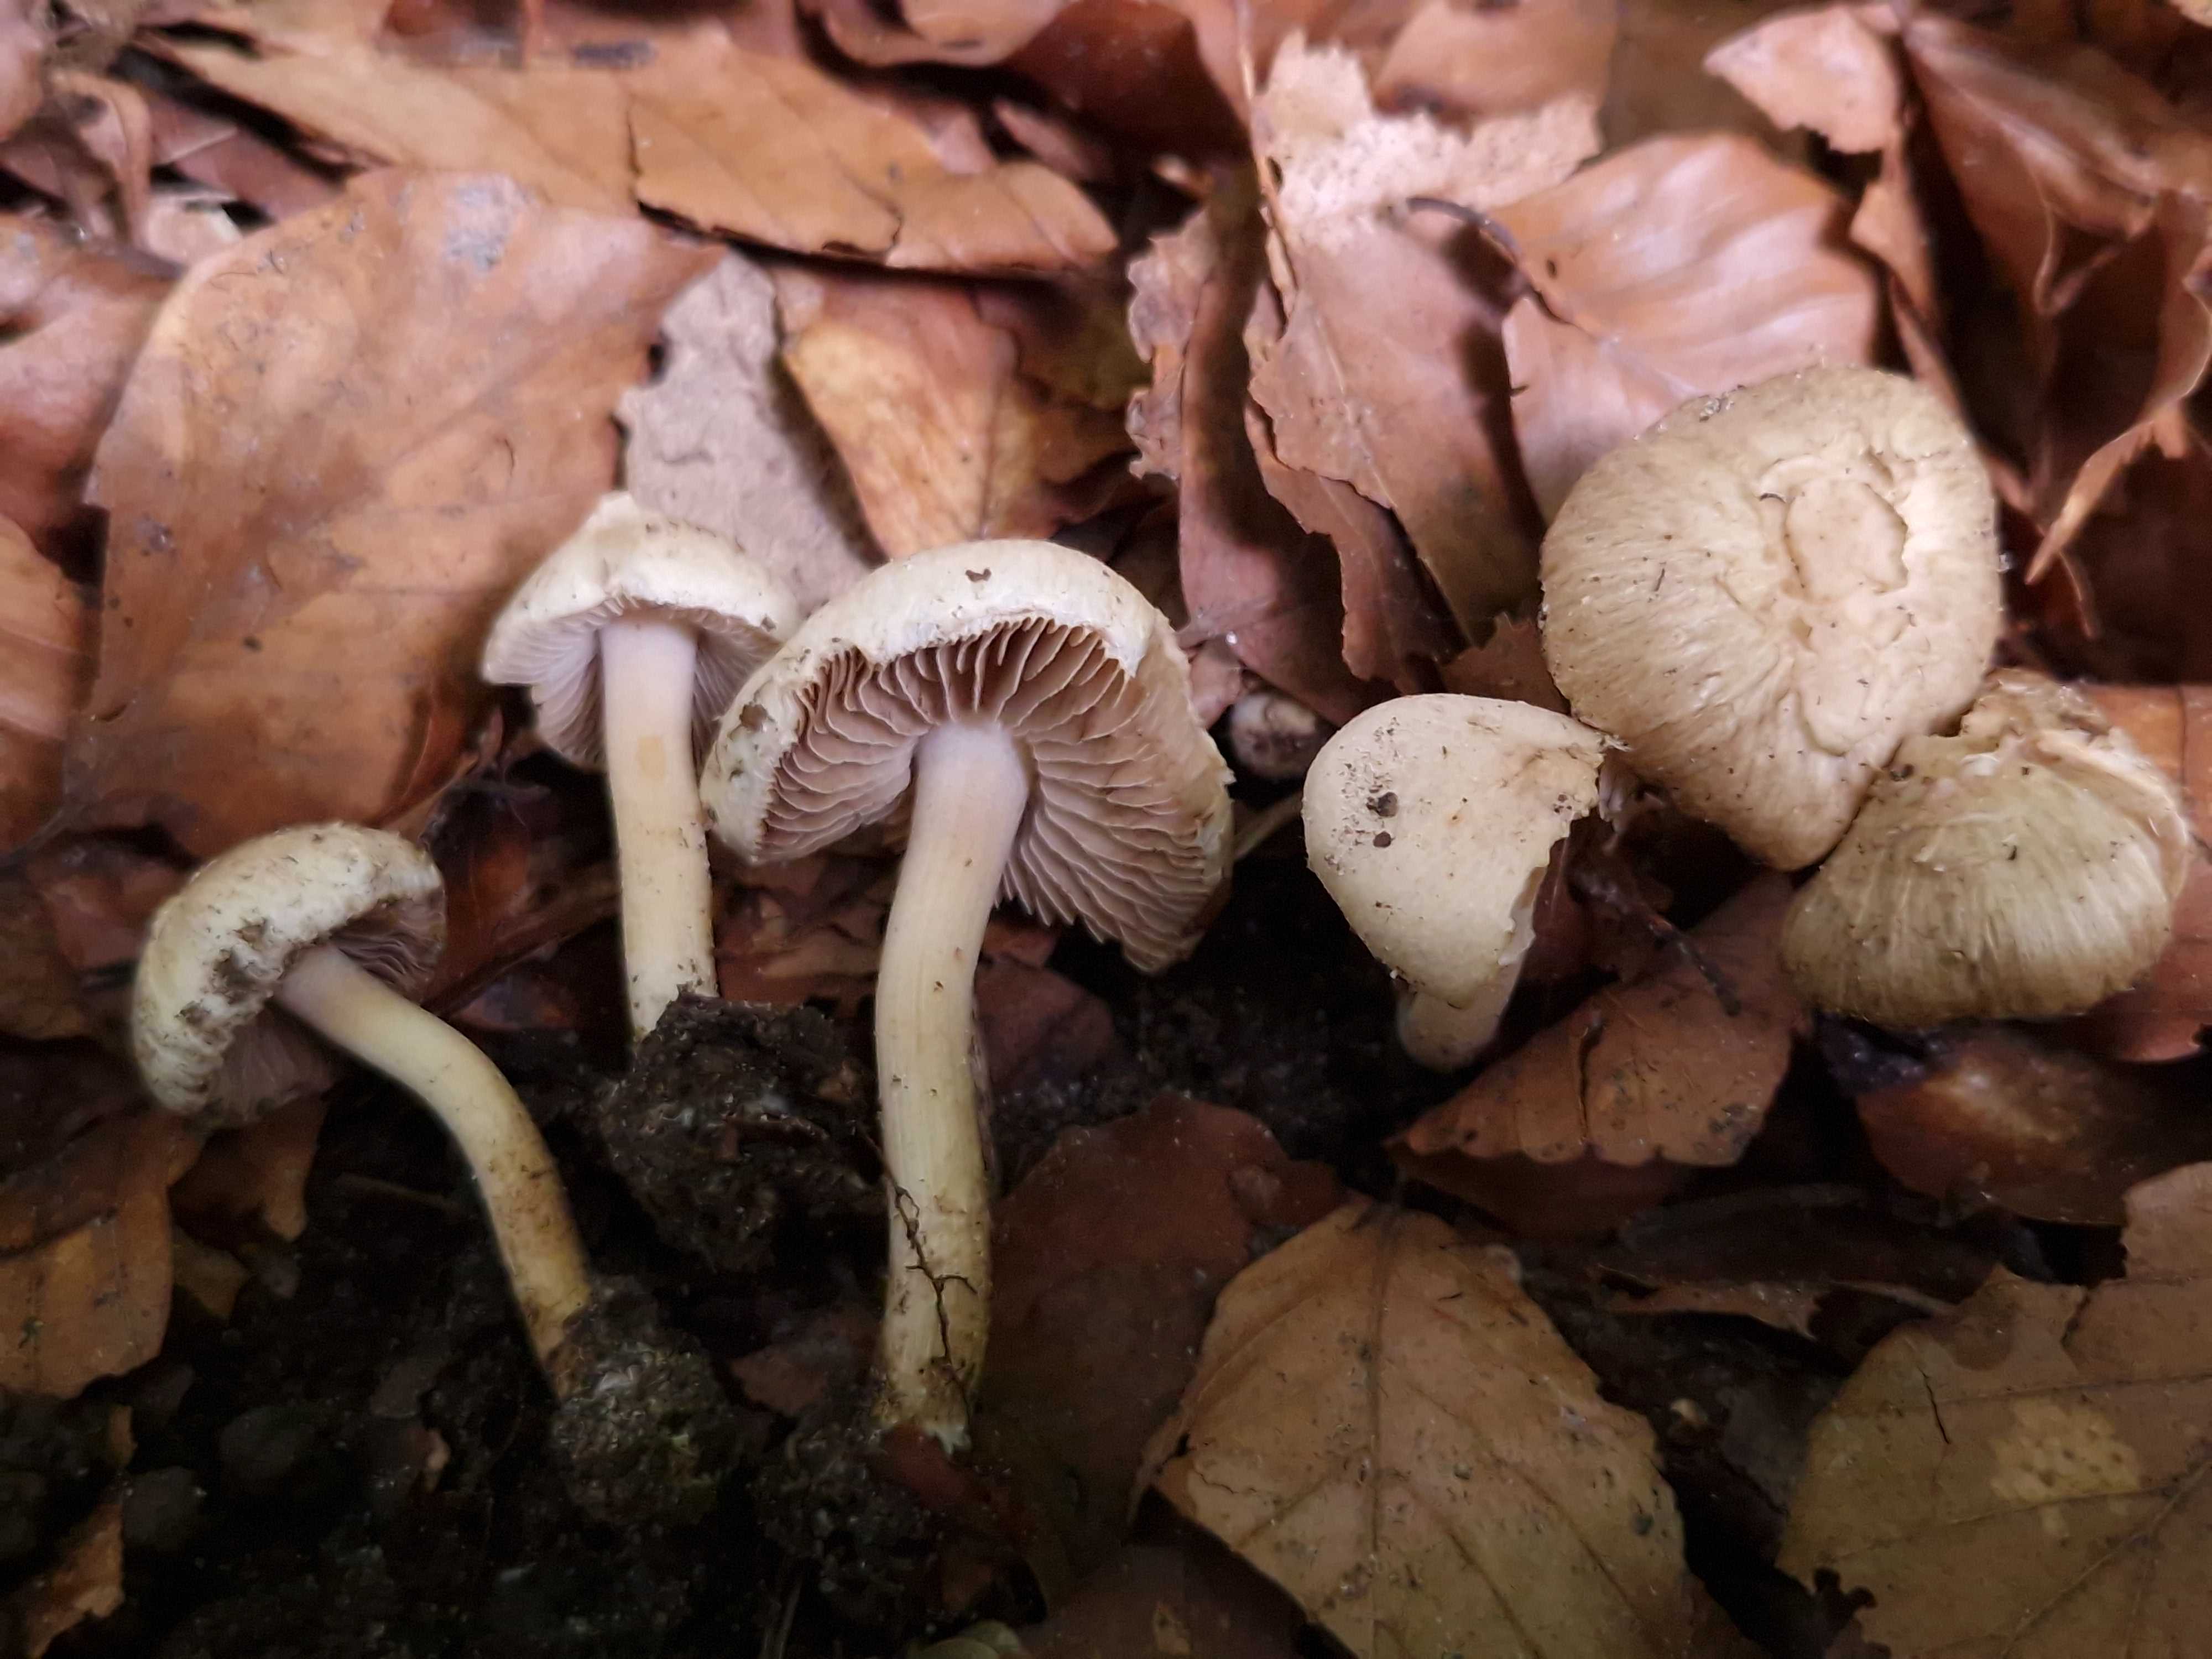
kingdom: Fungi
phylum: Basidiomycota
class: Agaricomycetes
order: Agaricales
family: Inocybaceae
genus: Inocybe
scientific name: Inocybe sindonia
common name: bleg trævlhat
